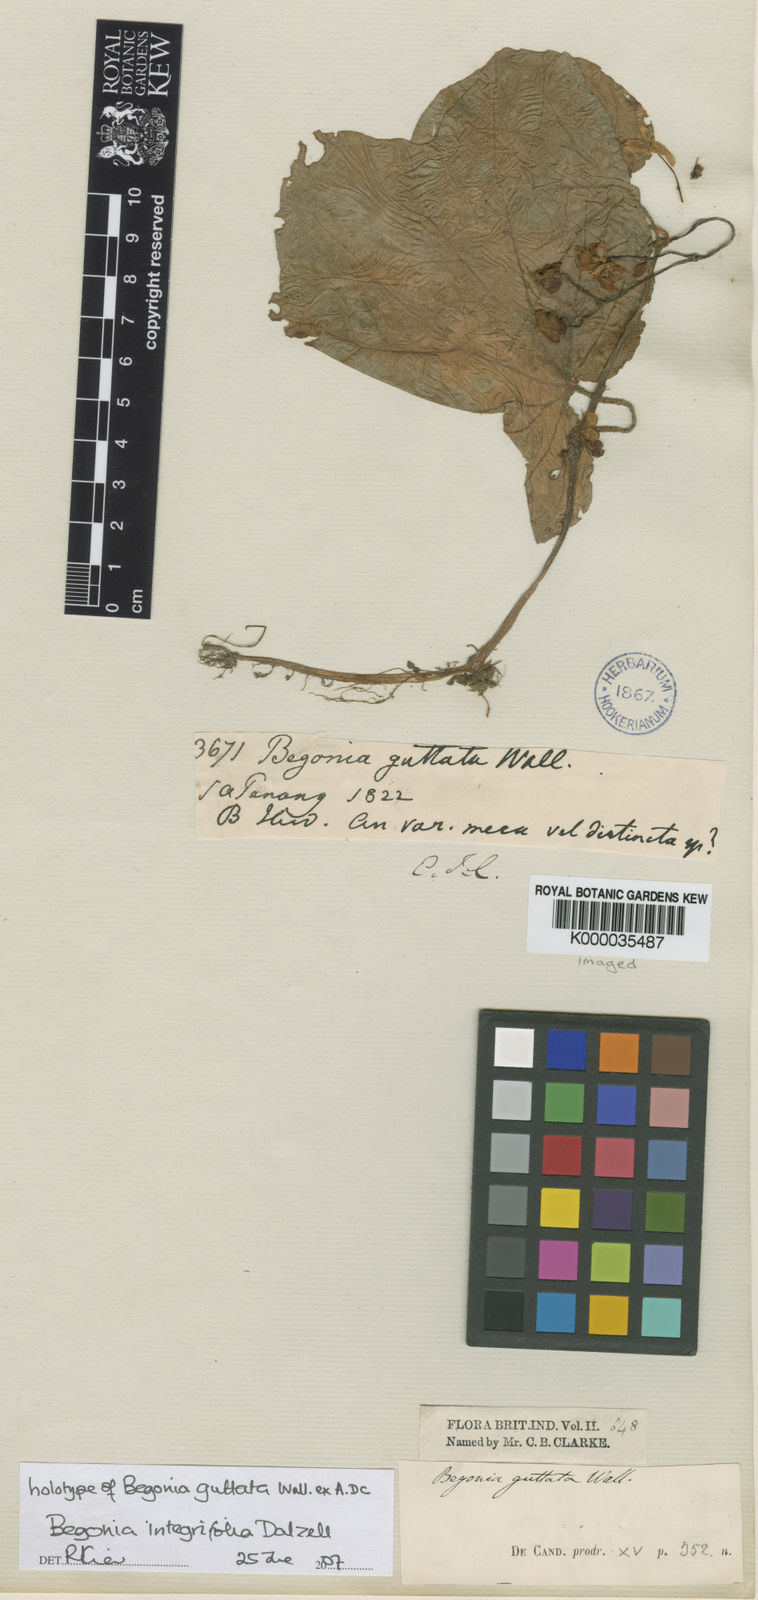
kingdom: Plantae
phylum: Tracheophyta
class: Magnoliopsida
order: Cucurbitales
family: Begoniaceae
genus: Begonia
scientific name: Begonia integrifolia
